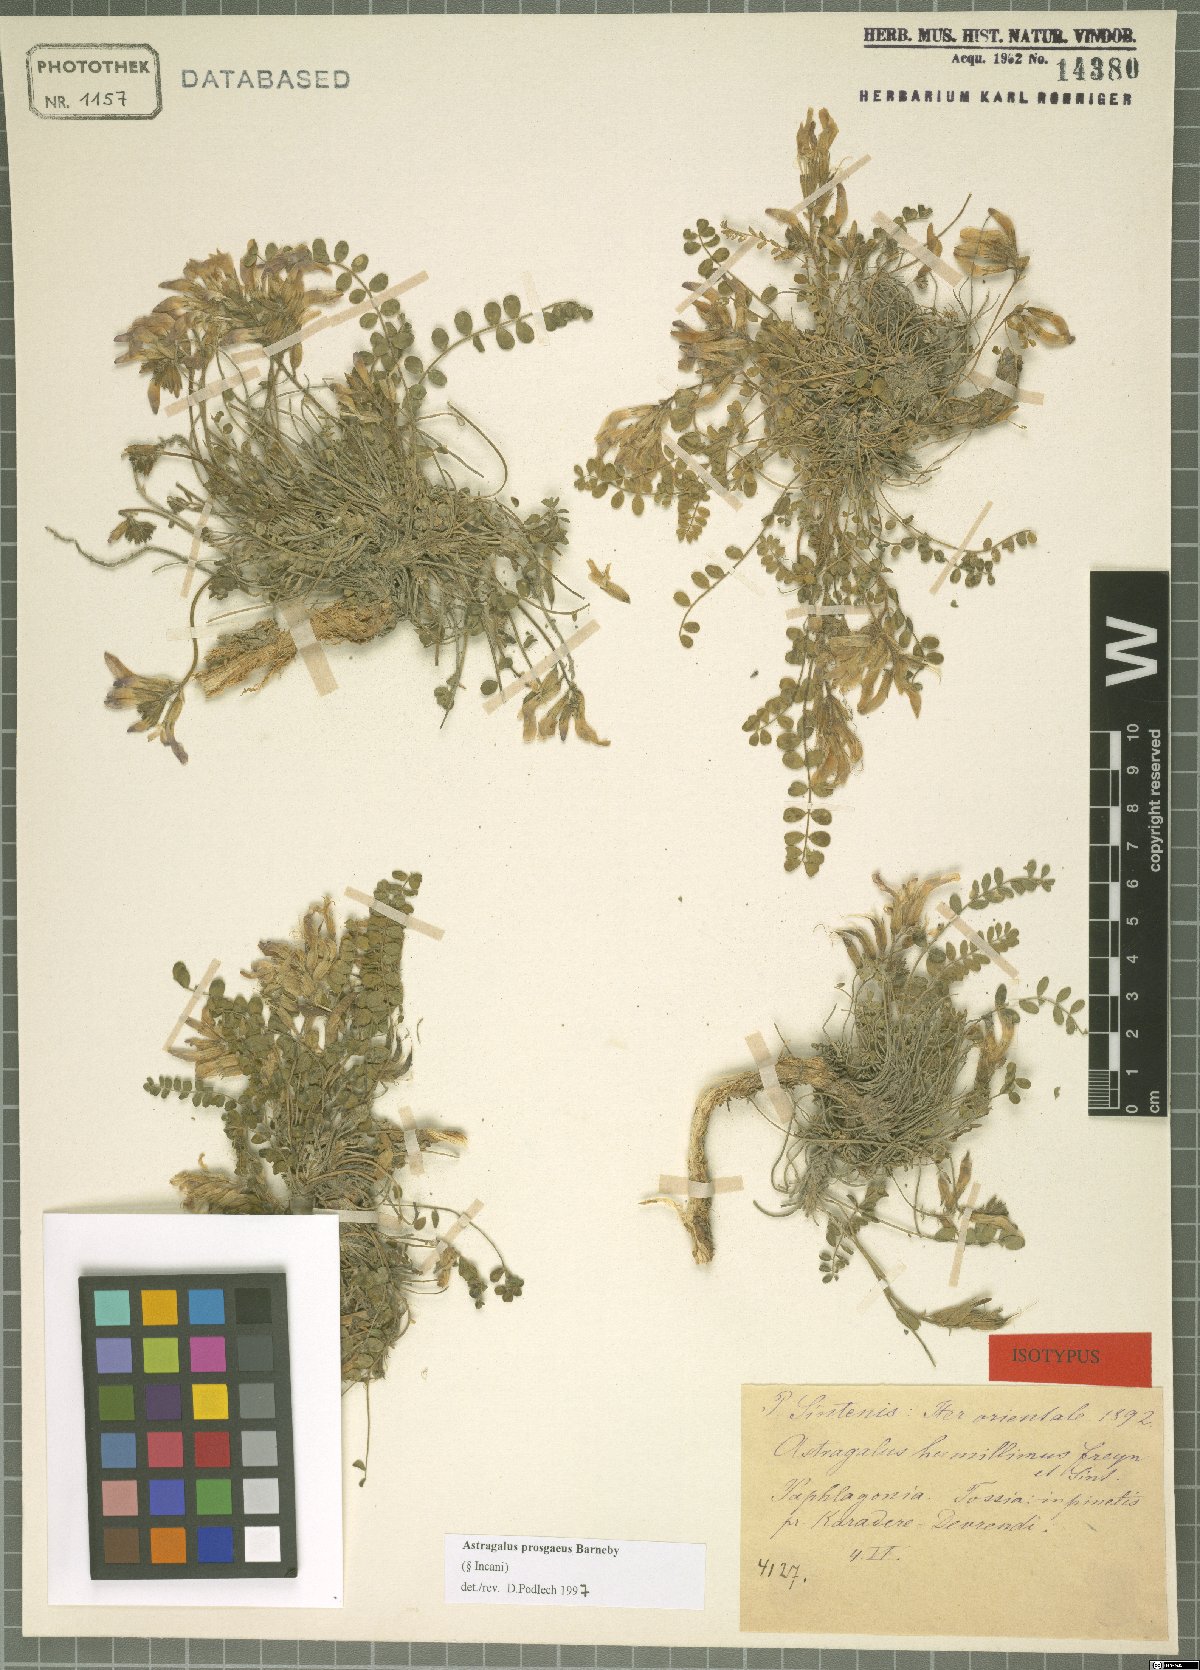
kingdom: Plantae
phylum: Tracheophyta
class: Magnoliopsida
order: Fabales
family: Fabaceae
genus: Astragalus
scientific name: Astragalus prosgaeus
